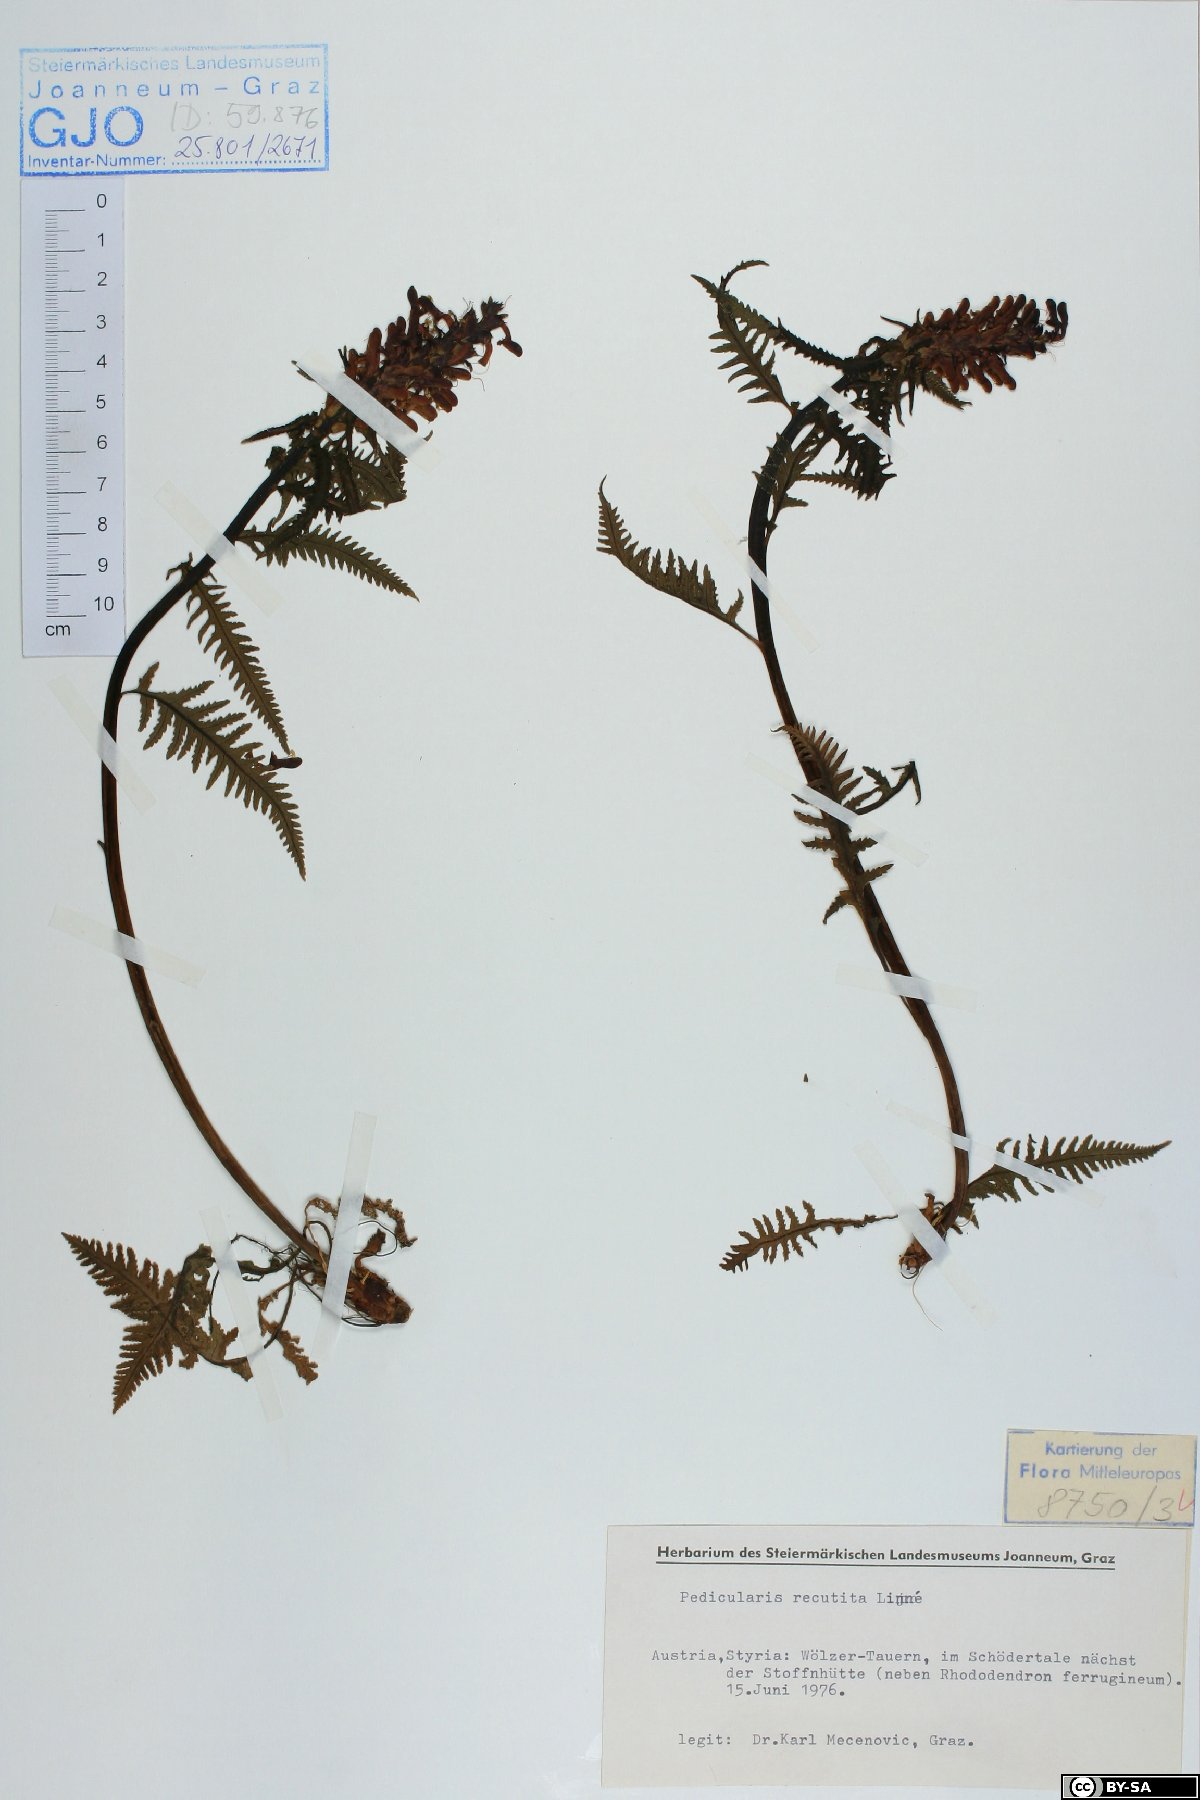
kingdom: Plantae
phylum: Tracheophyta
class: Magnoliopsida
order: Lamiales
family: Orobanchaceae
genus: Pedicularis
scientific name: Pedicularis recutita
